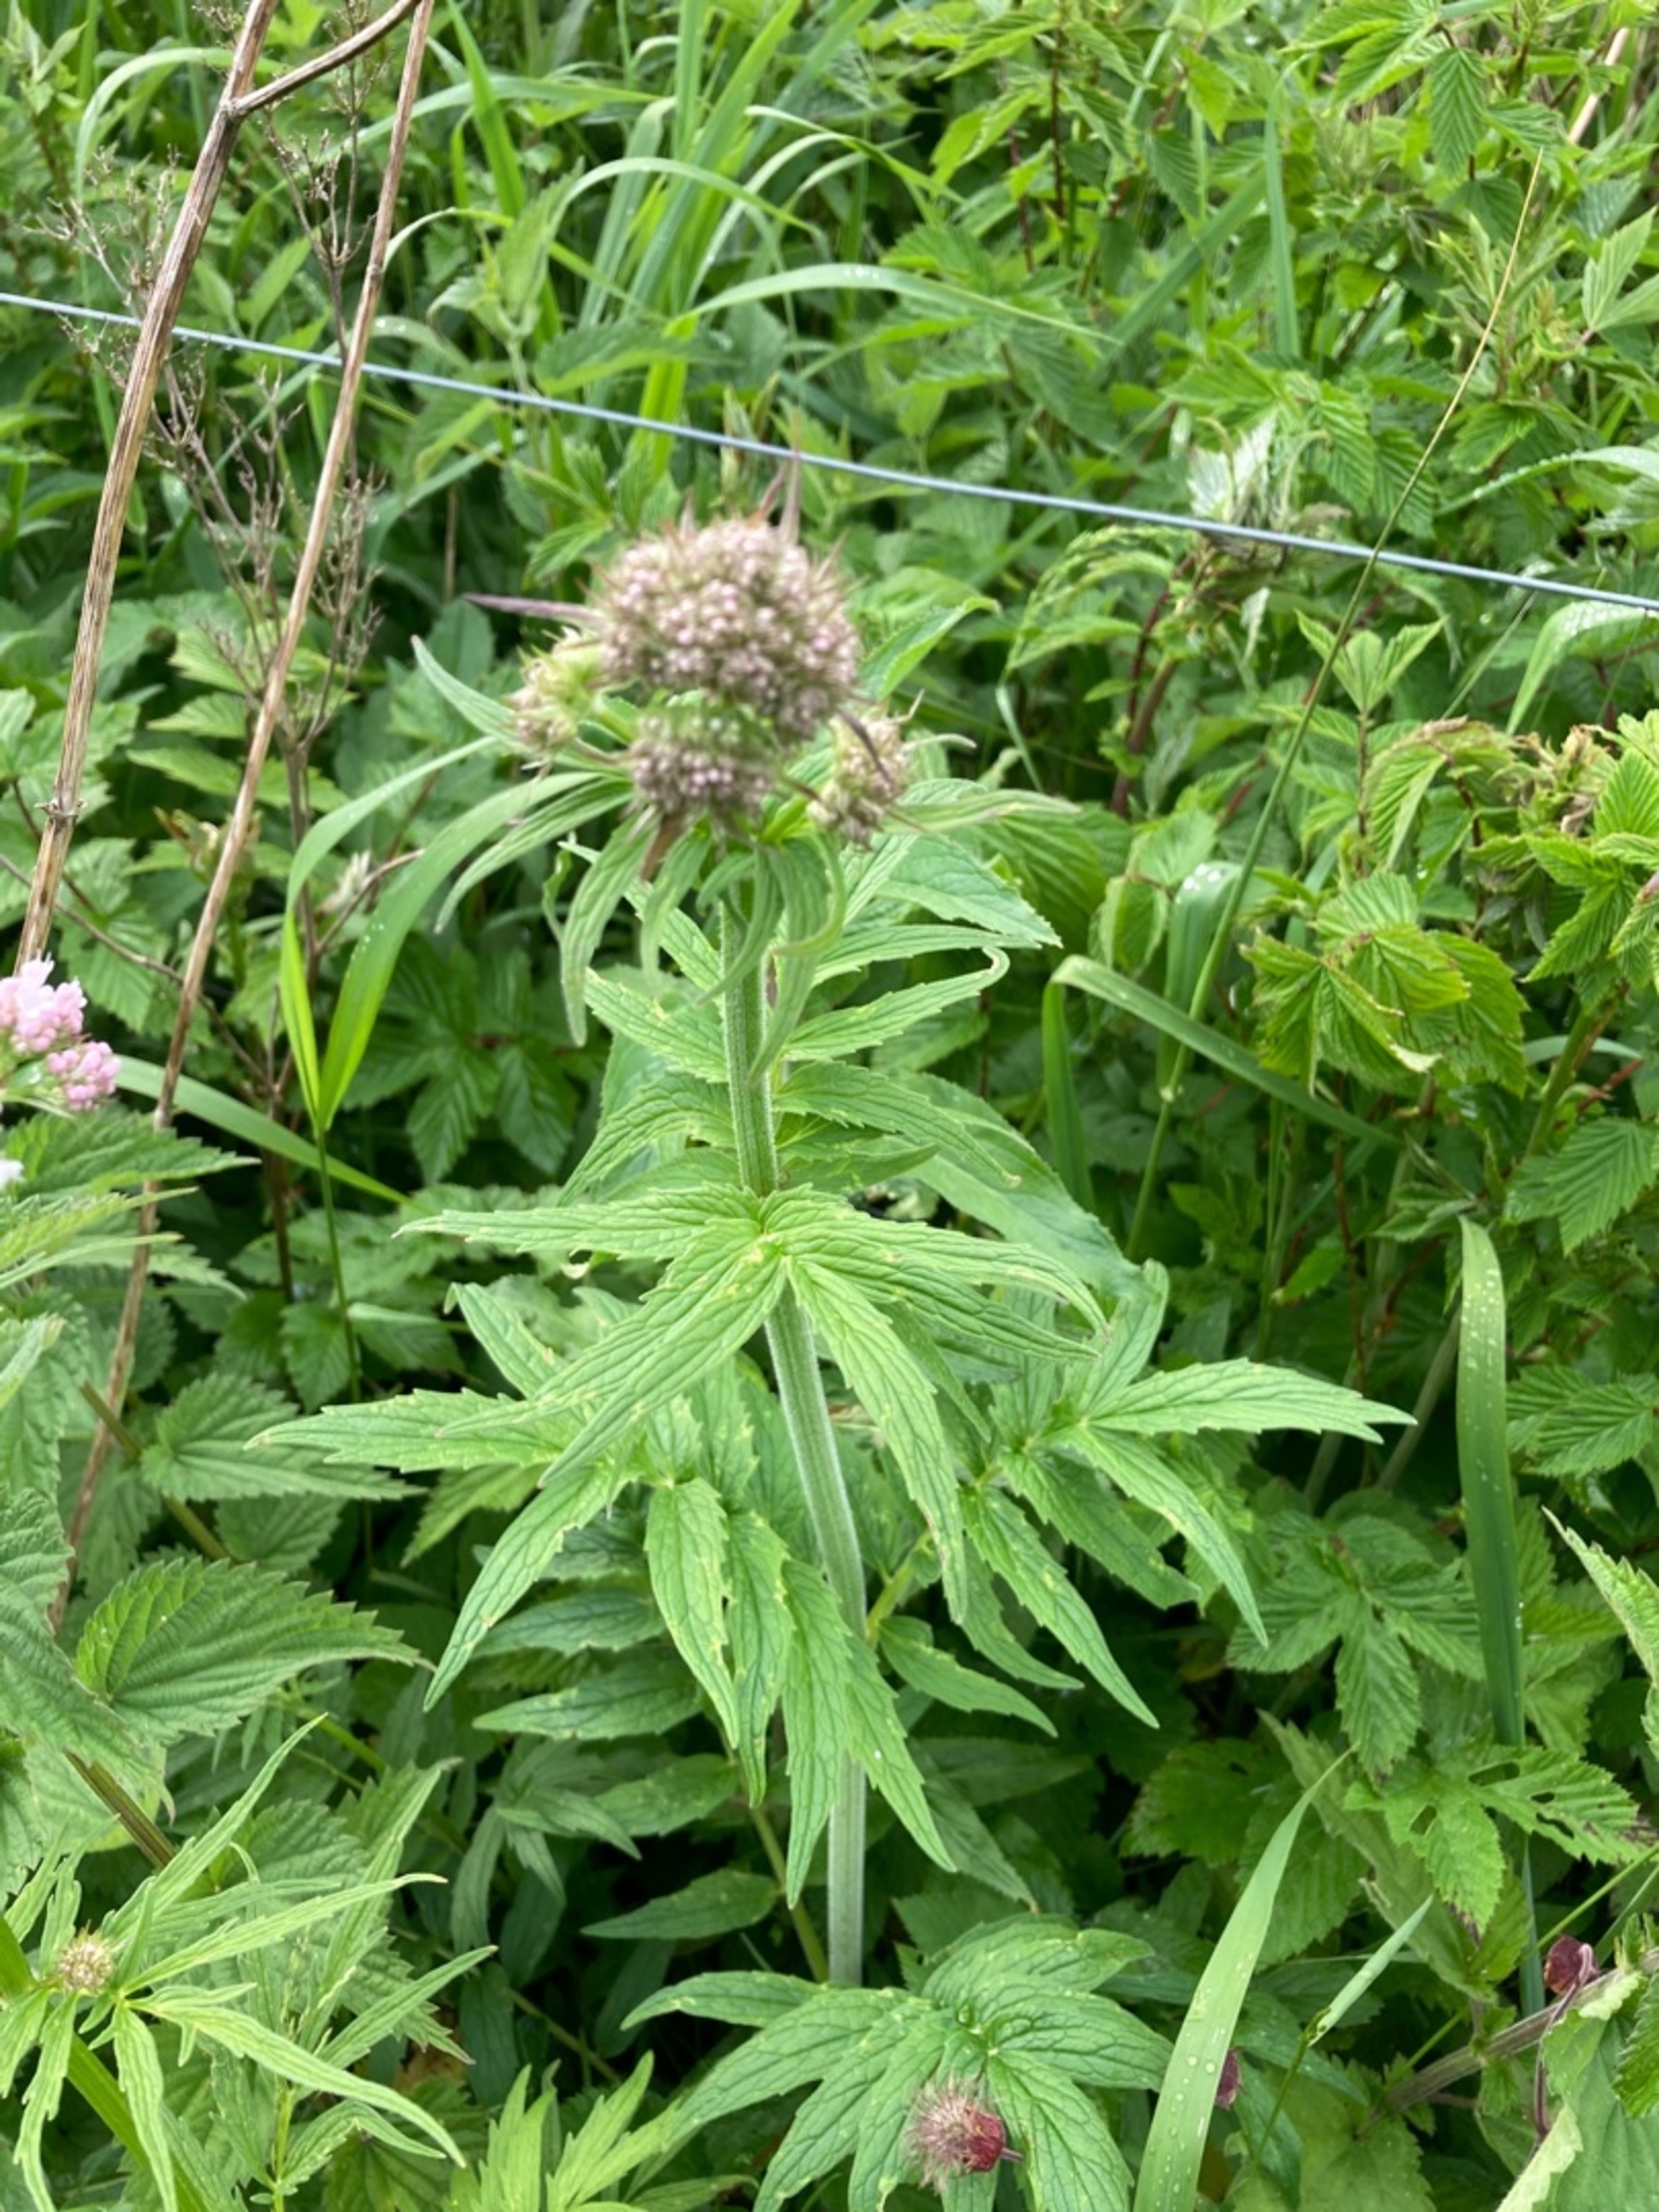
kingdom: Plantae
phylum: Tracheophyta
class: Magnoliopsida
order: Dipsacales
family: Caprifoliaceae
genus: Valeriana
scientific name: Valeriana excelsa
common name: Krybende baldrian
